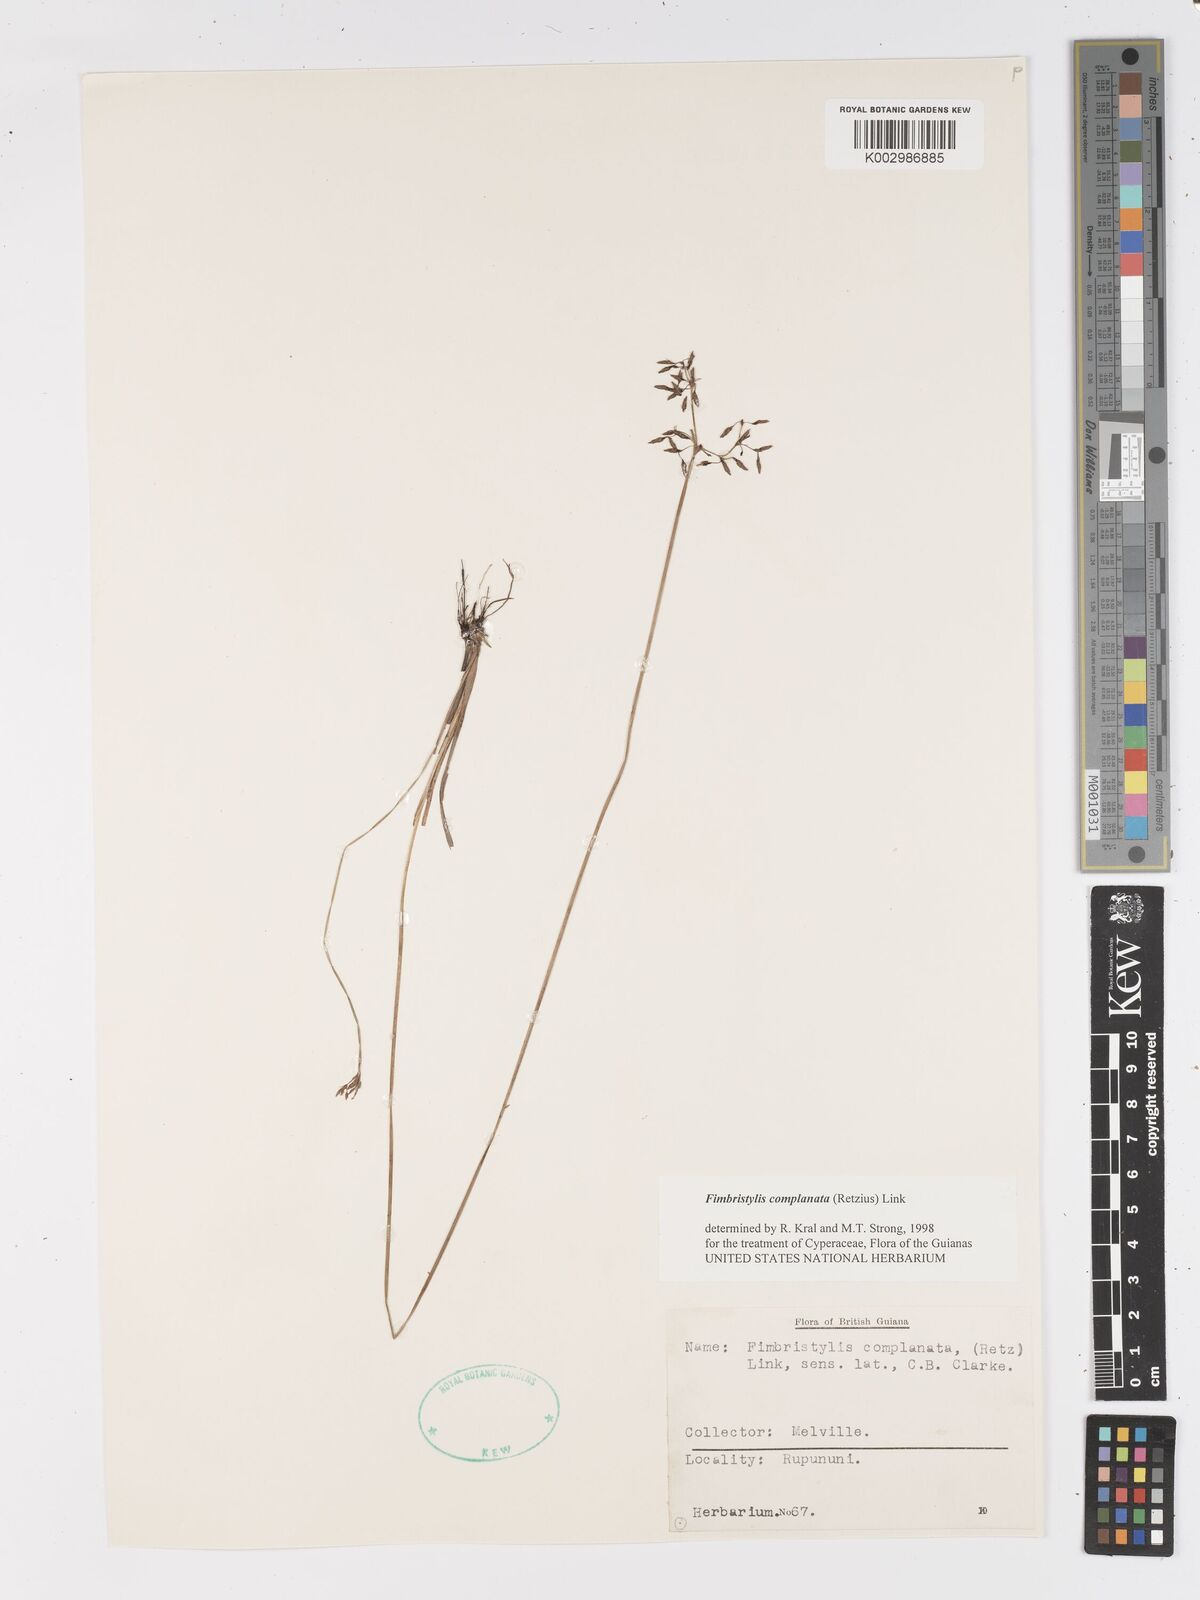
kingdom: Plantae
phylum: Tracheophyta
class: Liliopsida
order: Poales
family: Cyperaceae
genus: Fimbristylis
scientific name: Fimbristylis complanata
